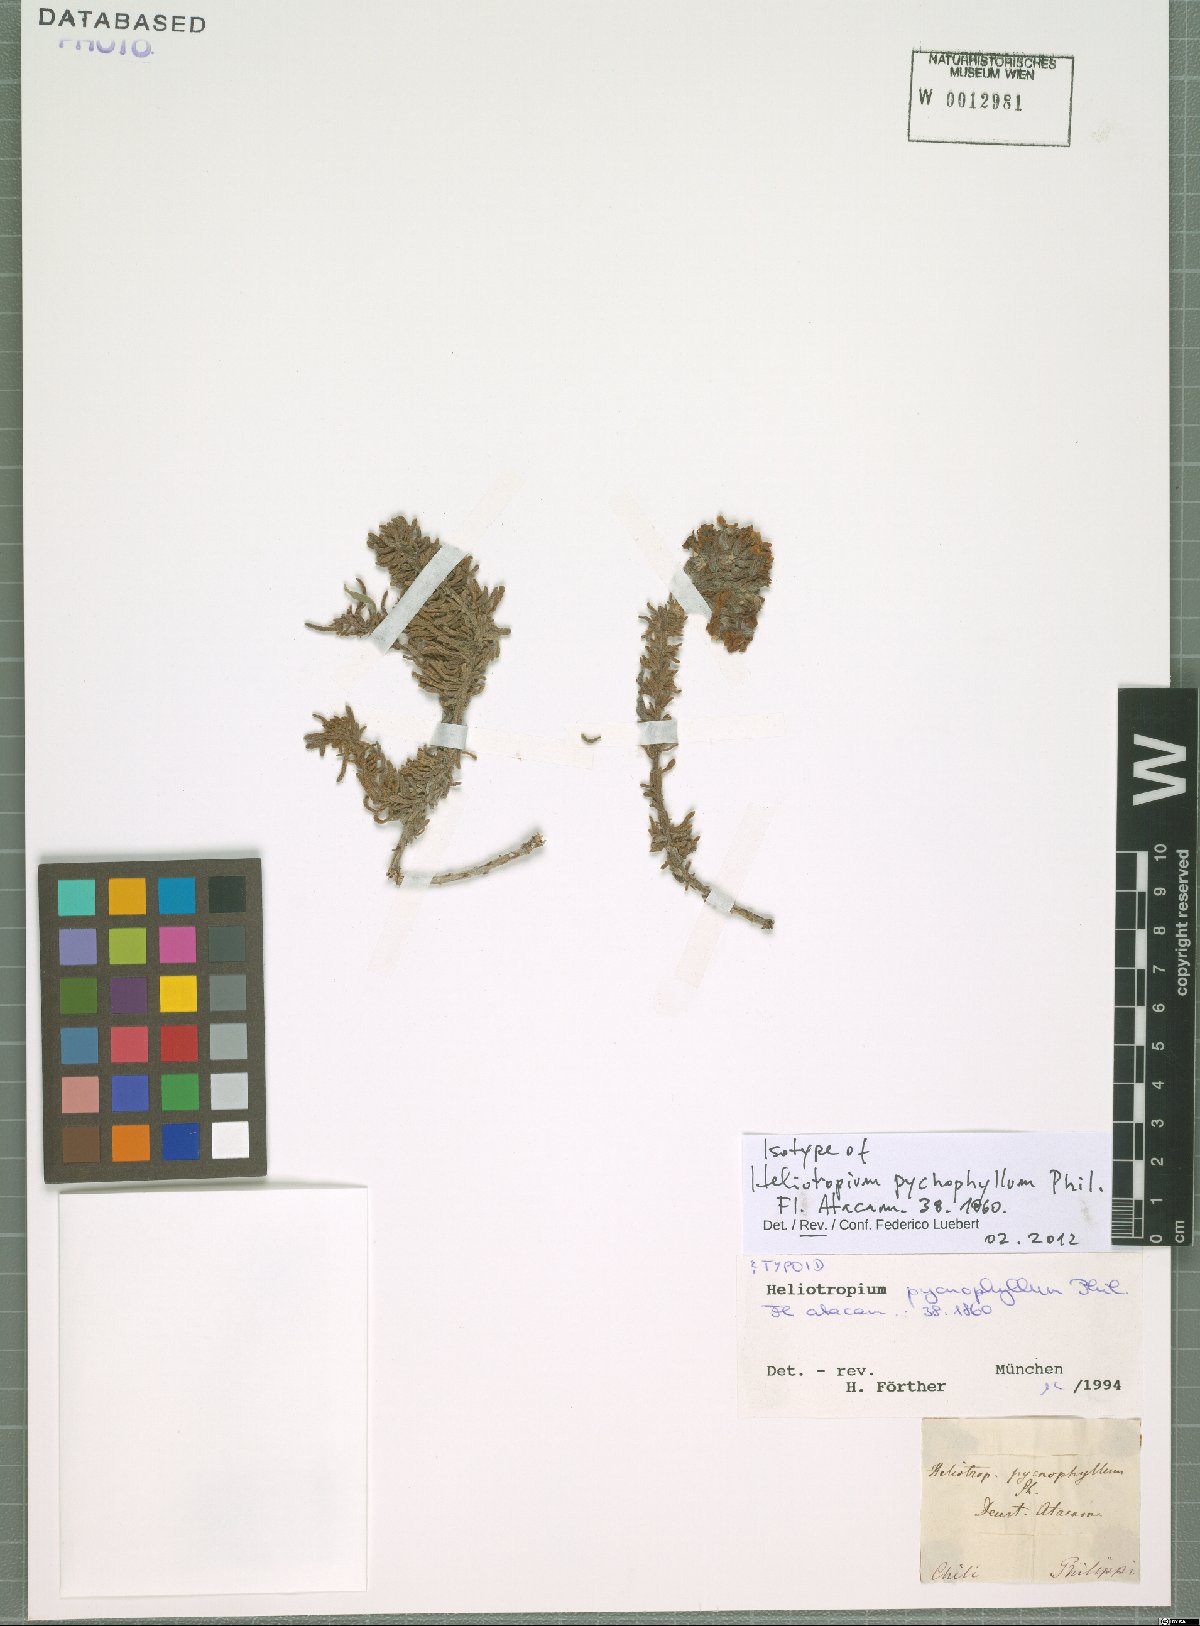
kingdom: Plantae
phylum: Tracheophyta
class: Magnoliopsida
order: Boraginales
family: Heliotropiaceae
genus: Heliotropium
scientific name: Heliotropium pycnophyllum
